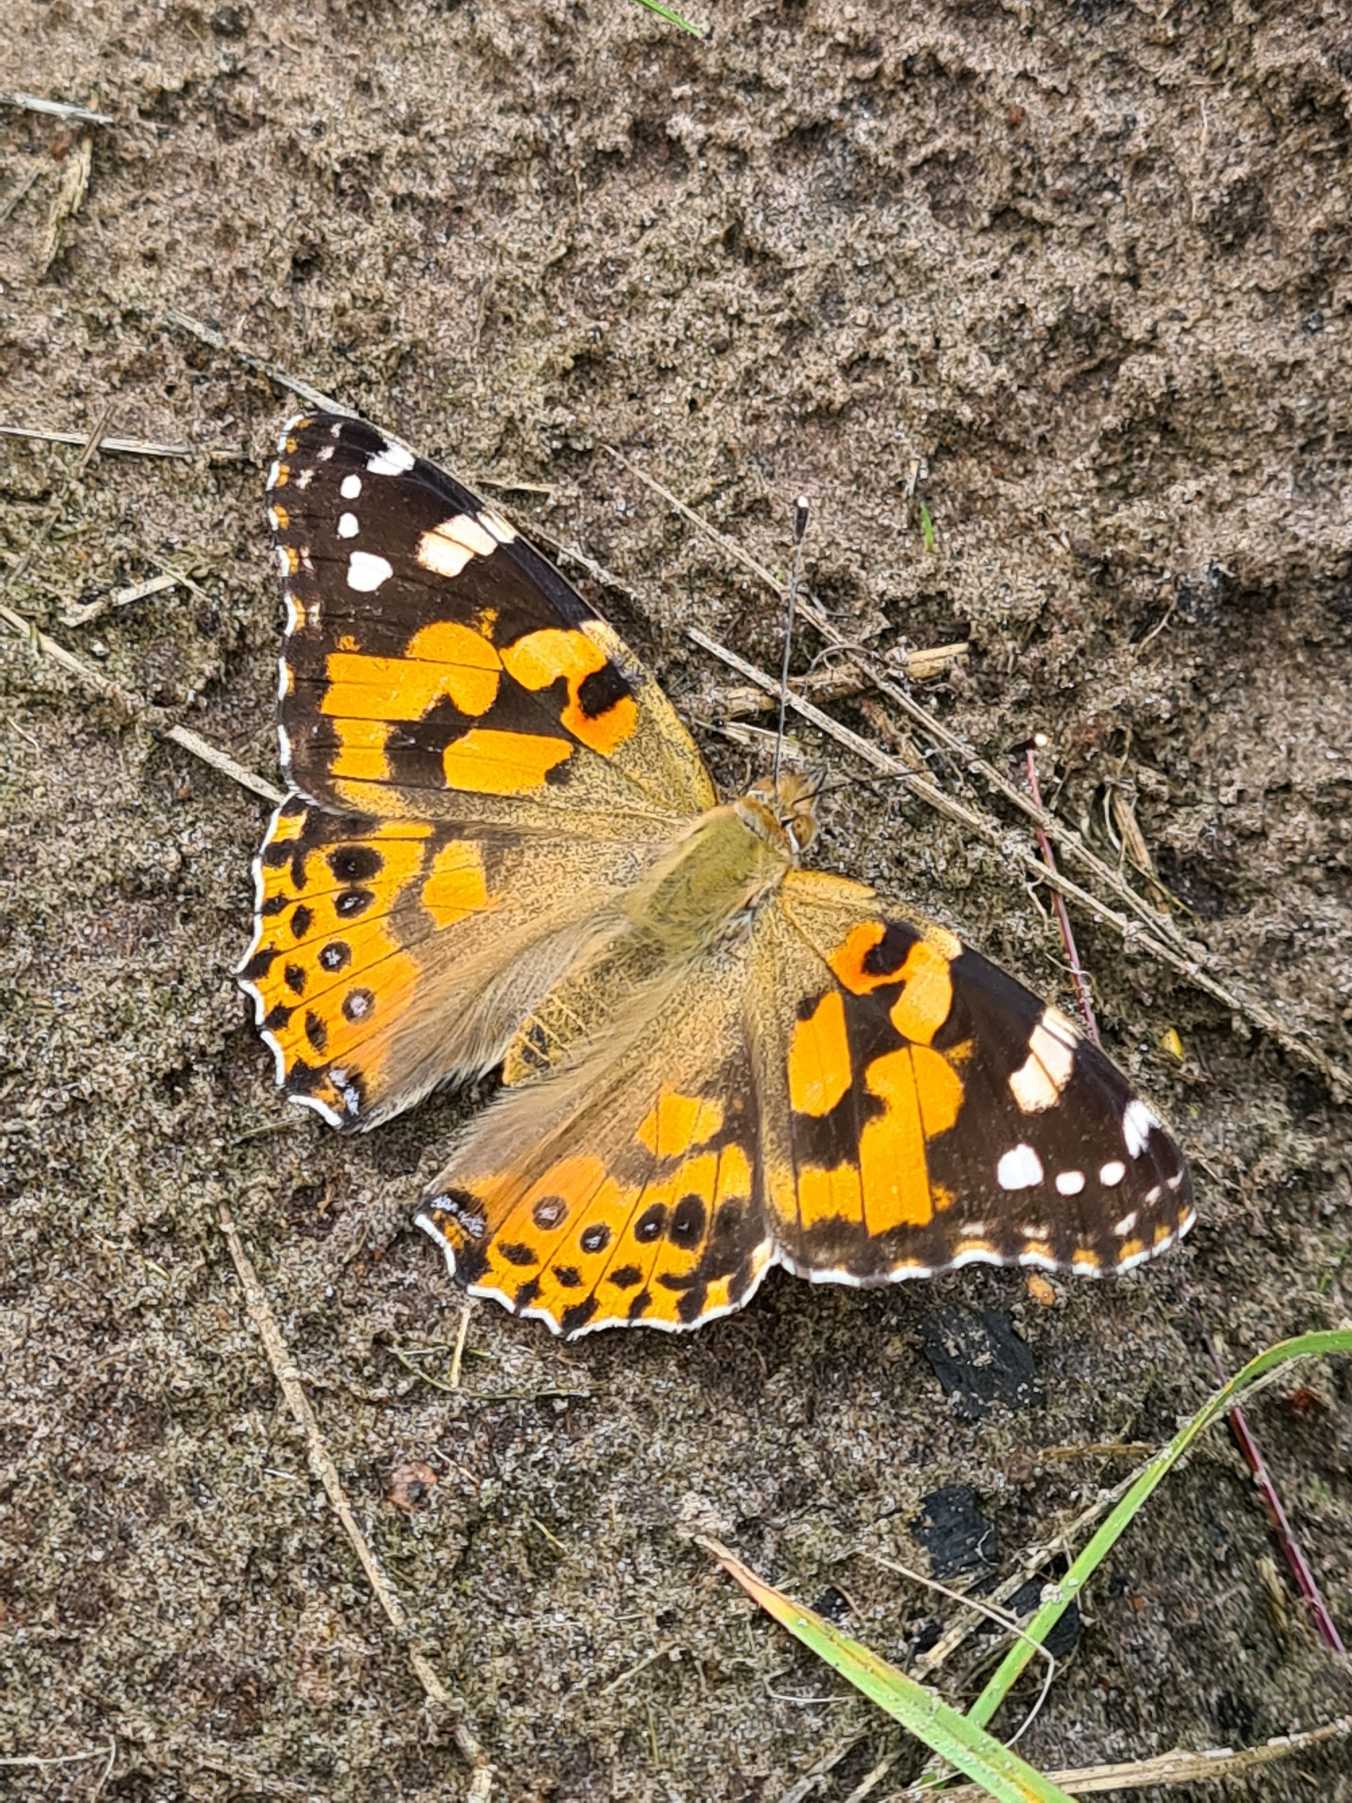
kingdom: Animalia
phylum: Arthropoda
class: Insecta
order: Lepidoptera
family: Nymphalidae
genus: Vanessa
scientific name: Vanessa cardui
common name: Tidselsommerfugl
